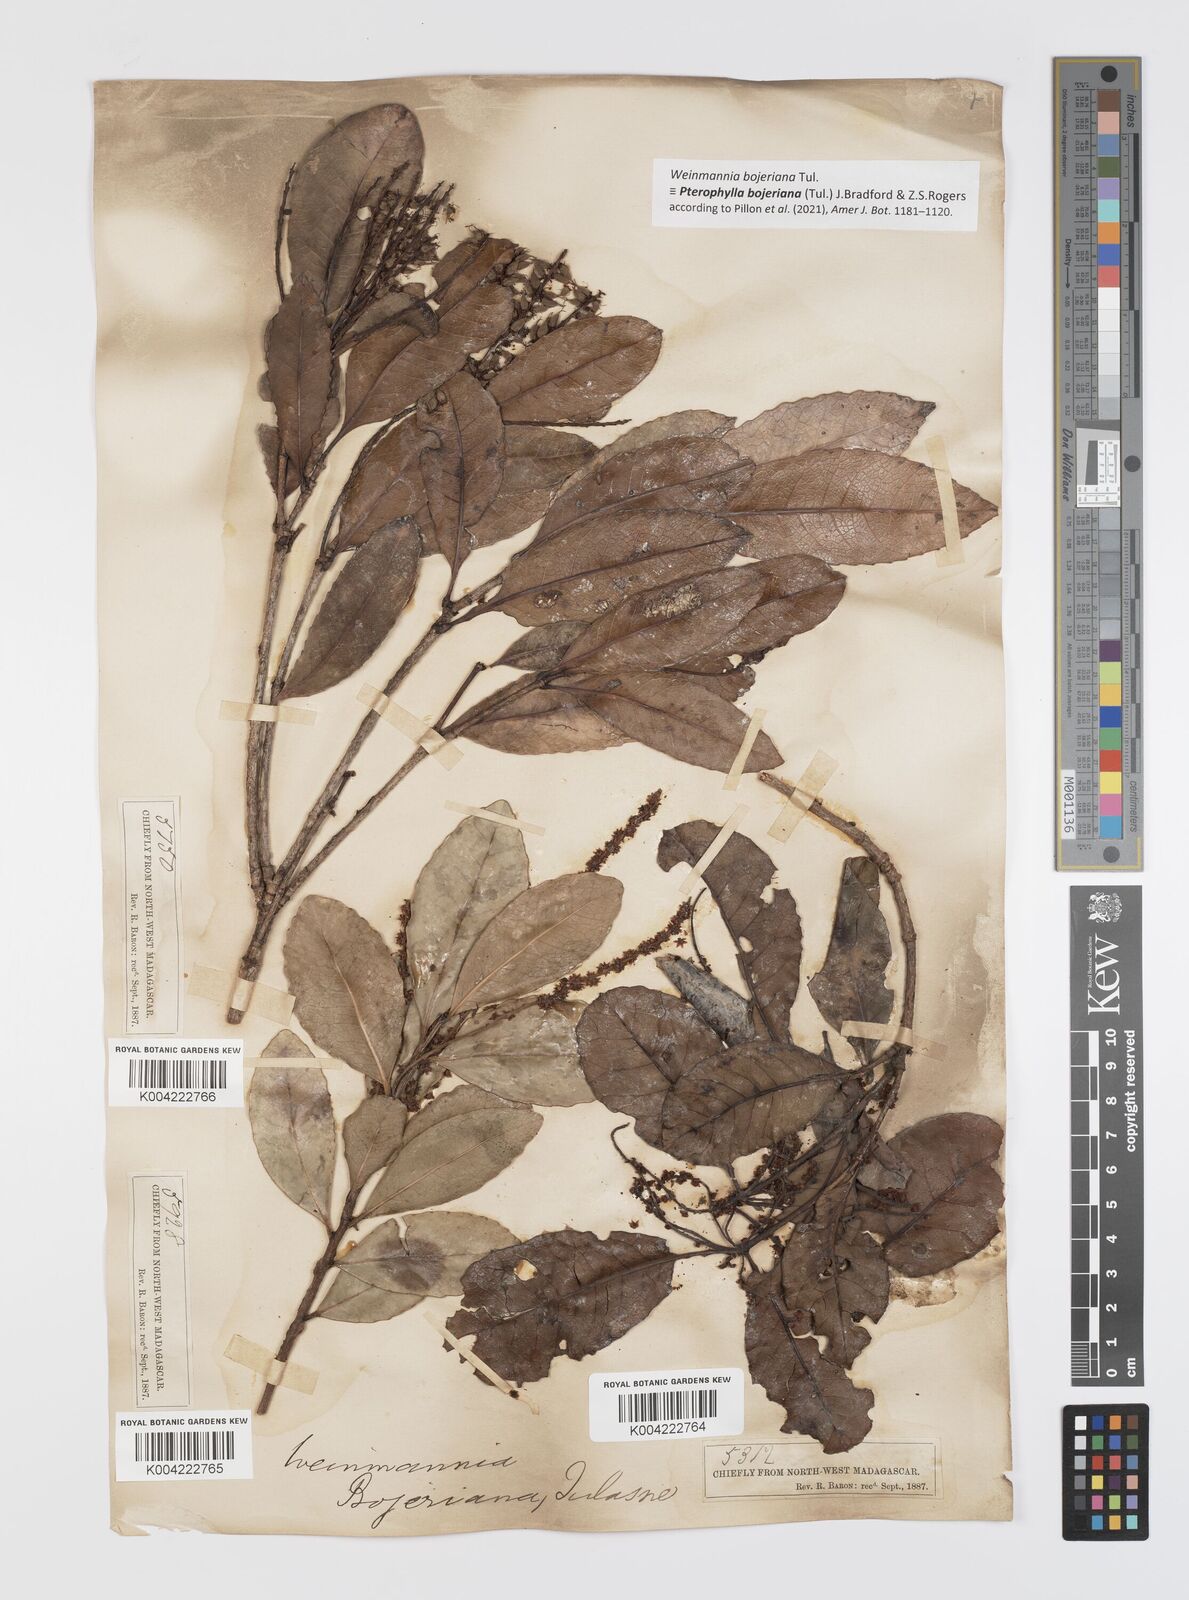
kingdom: Plantae
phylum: Tracheophyta
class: Magnoliopsida
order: Oxalidales
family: Cunoniaceae
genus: Pterophylla
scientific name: Pterophylla
